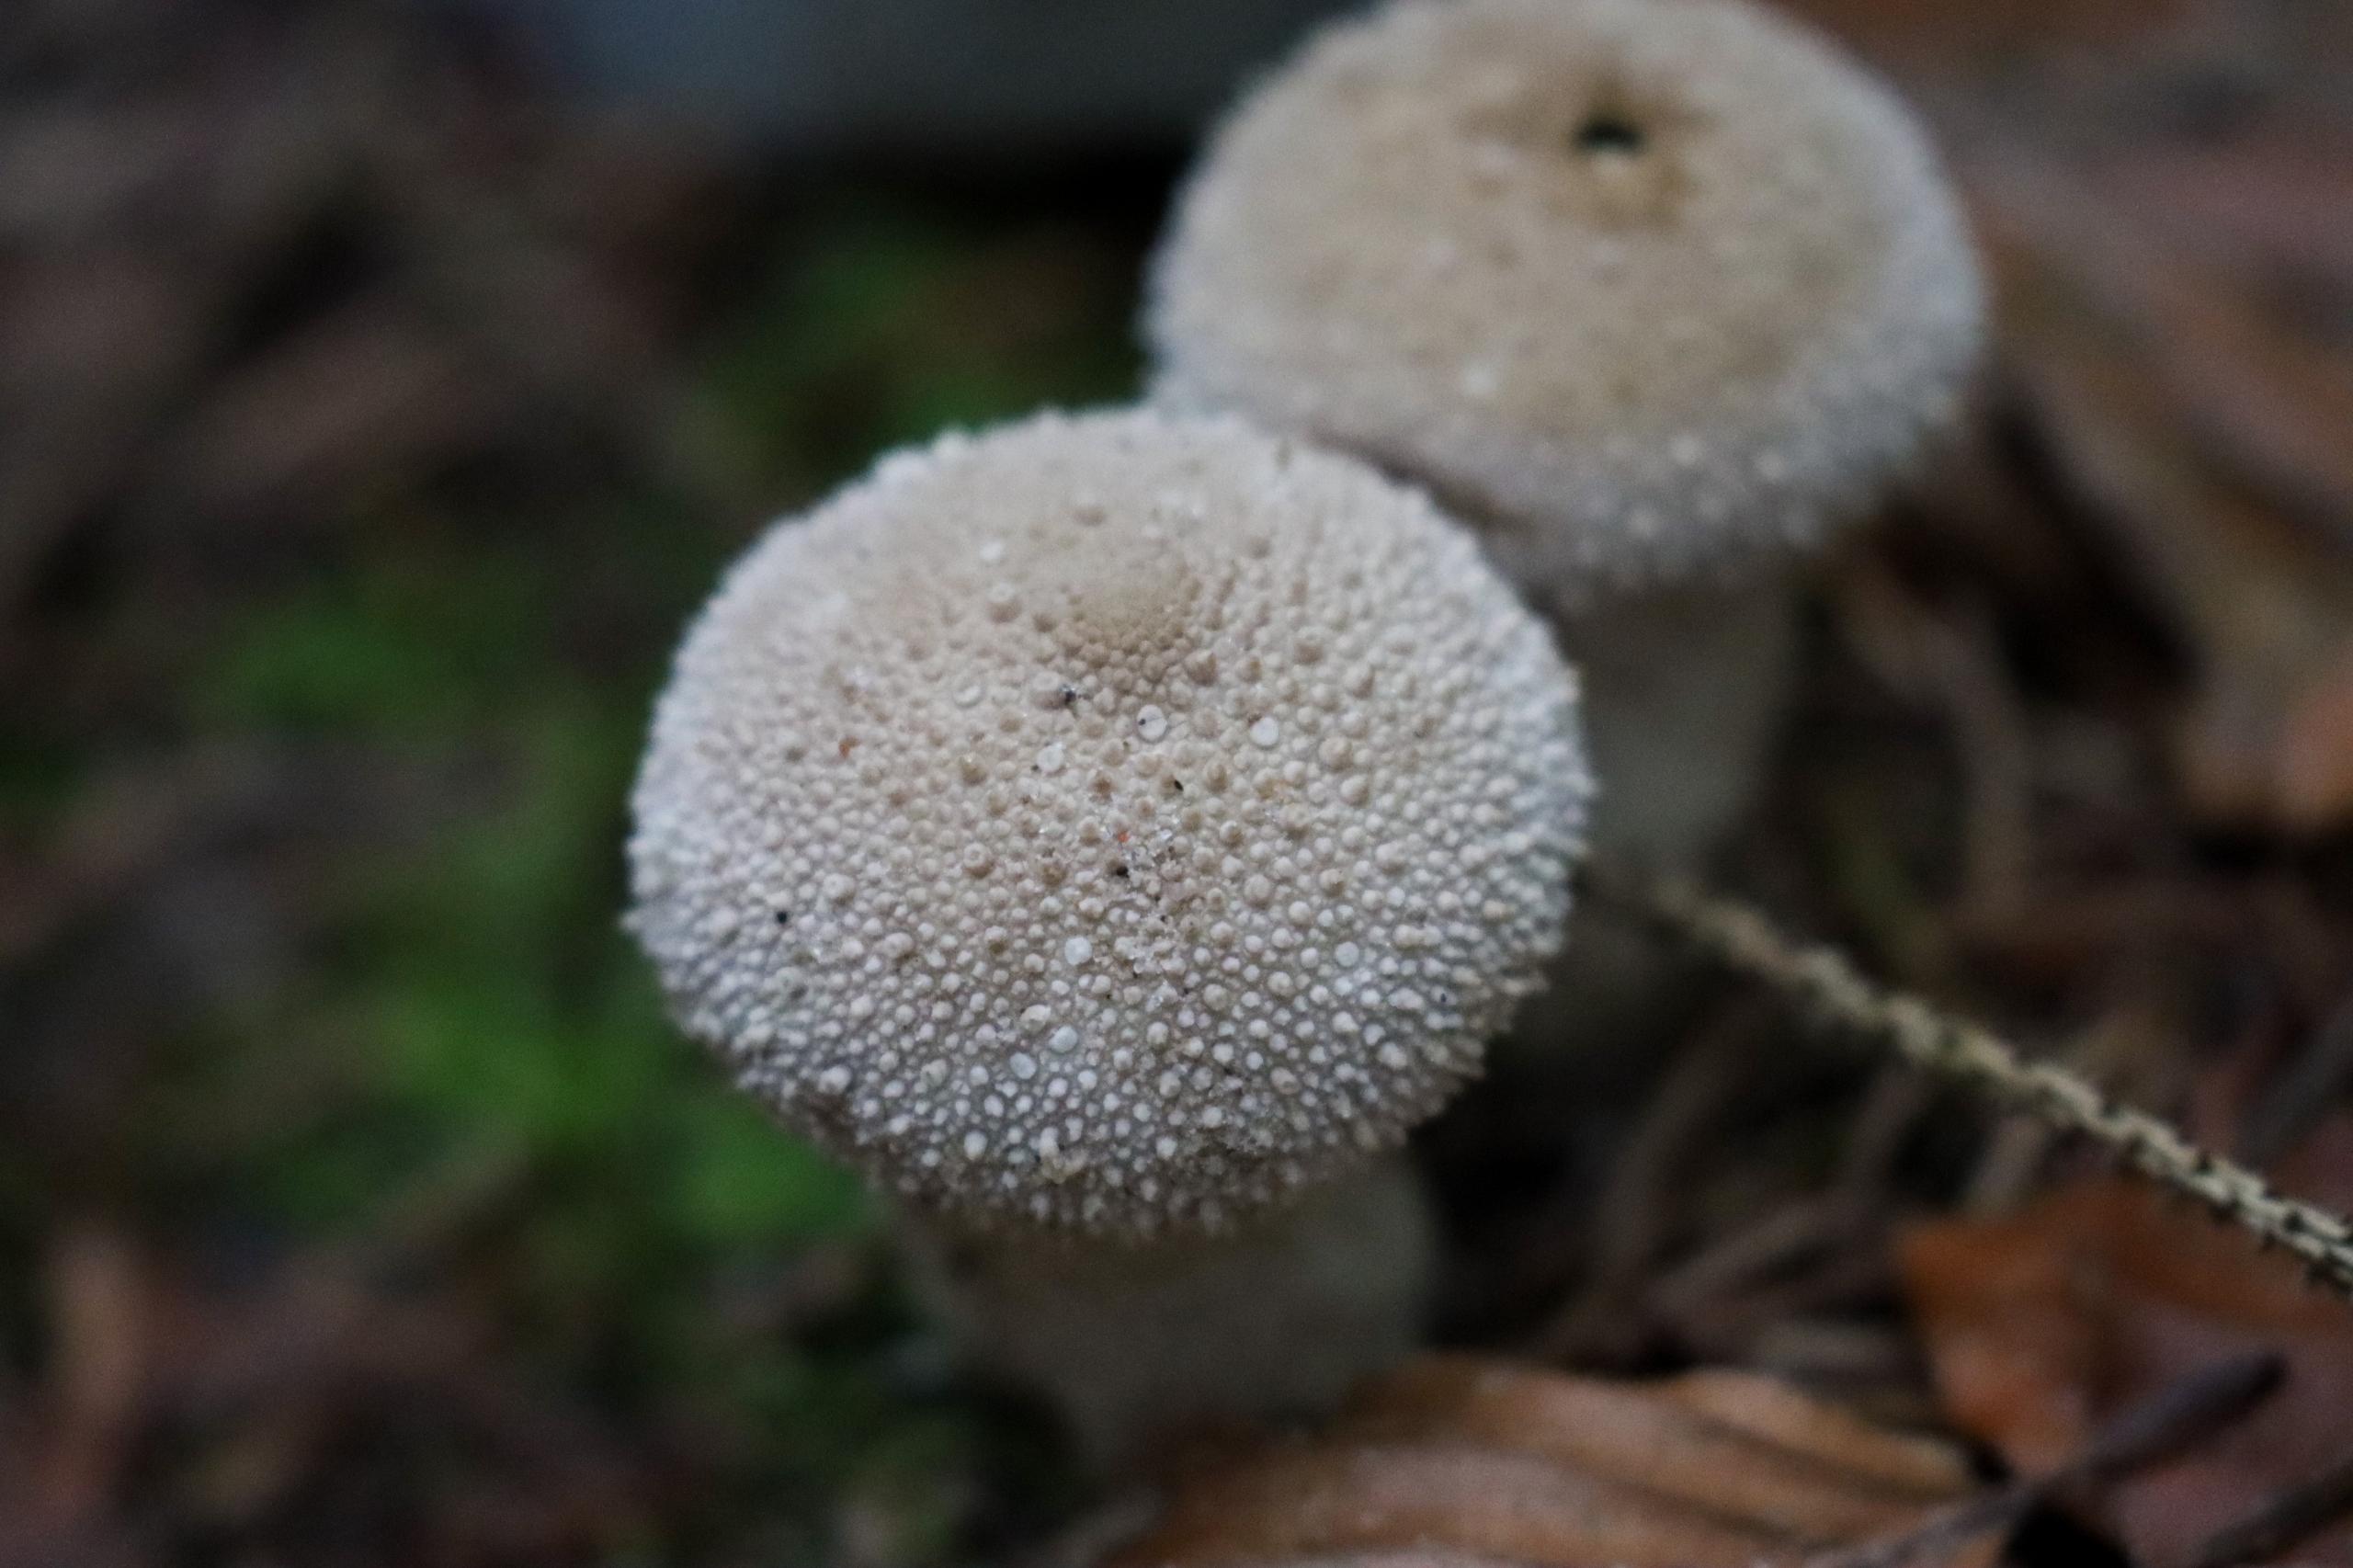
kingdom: Fungi
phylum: Basidiomycota
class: Agaricomycetes
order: Agaricales
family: Lycoperdaceae
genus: Lycoperdon
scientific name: Lycoperdon perlatum
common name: Krystal-støvbold
